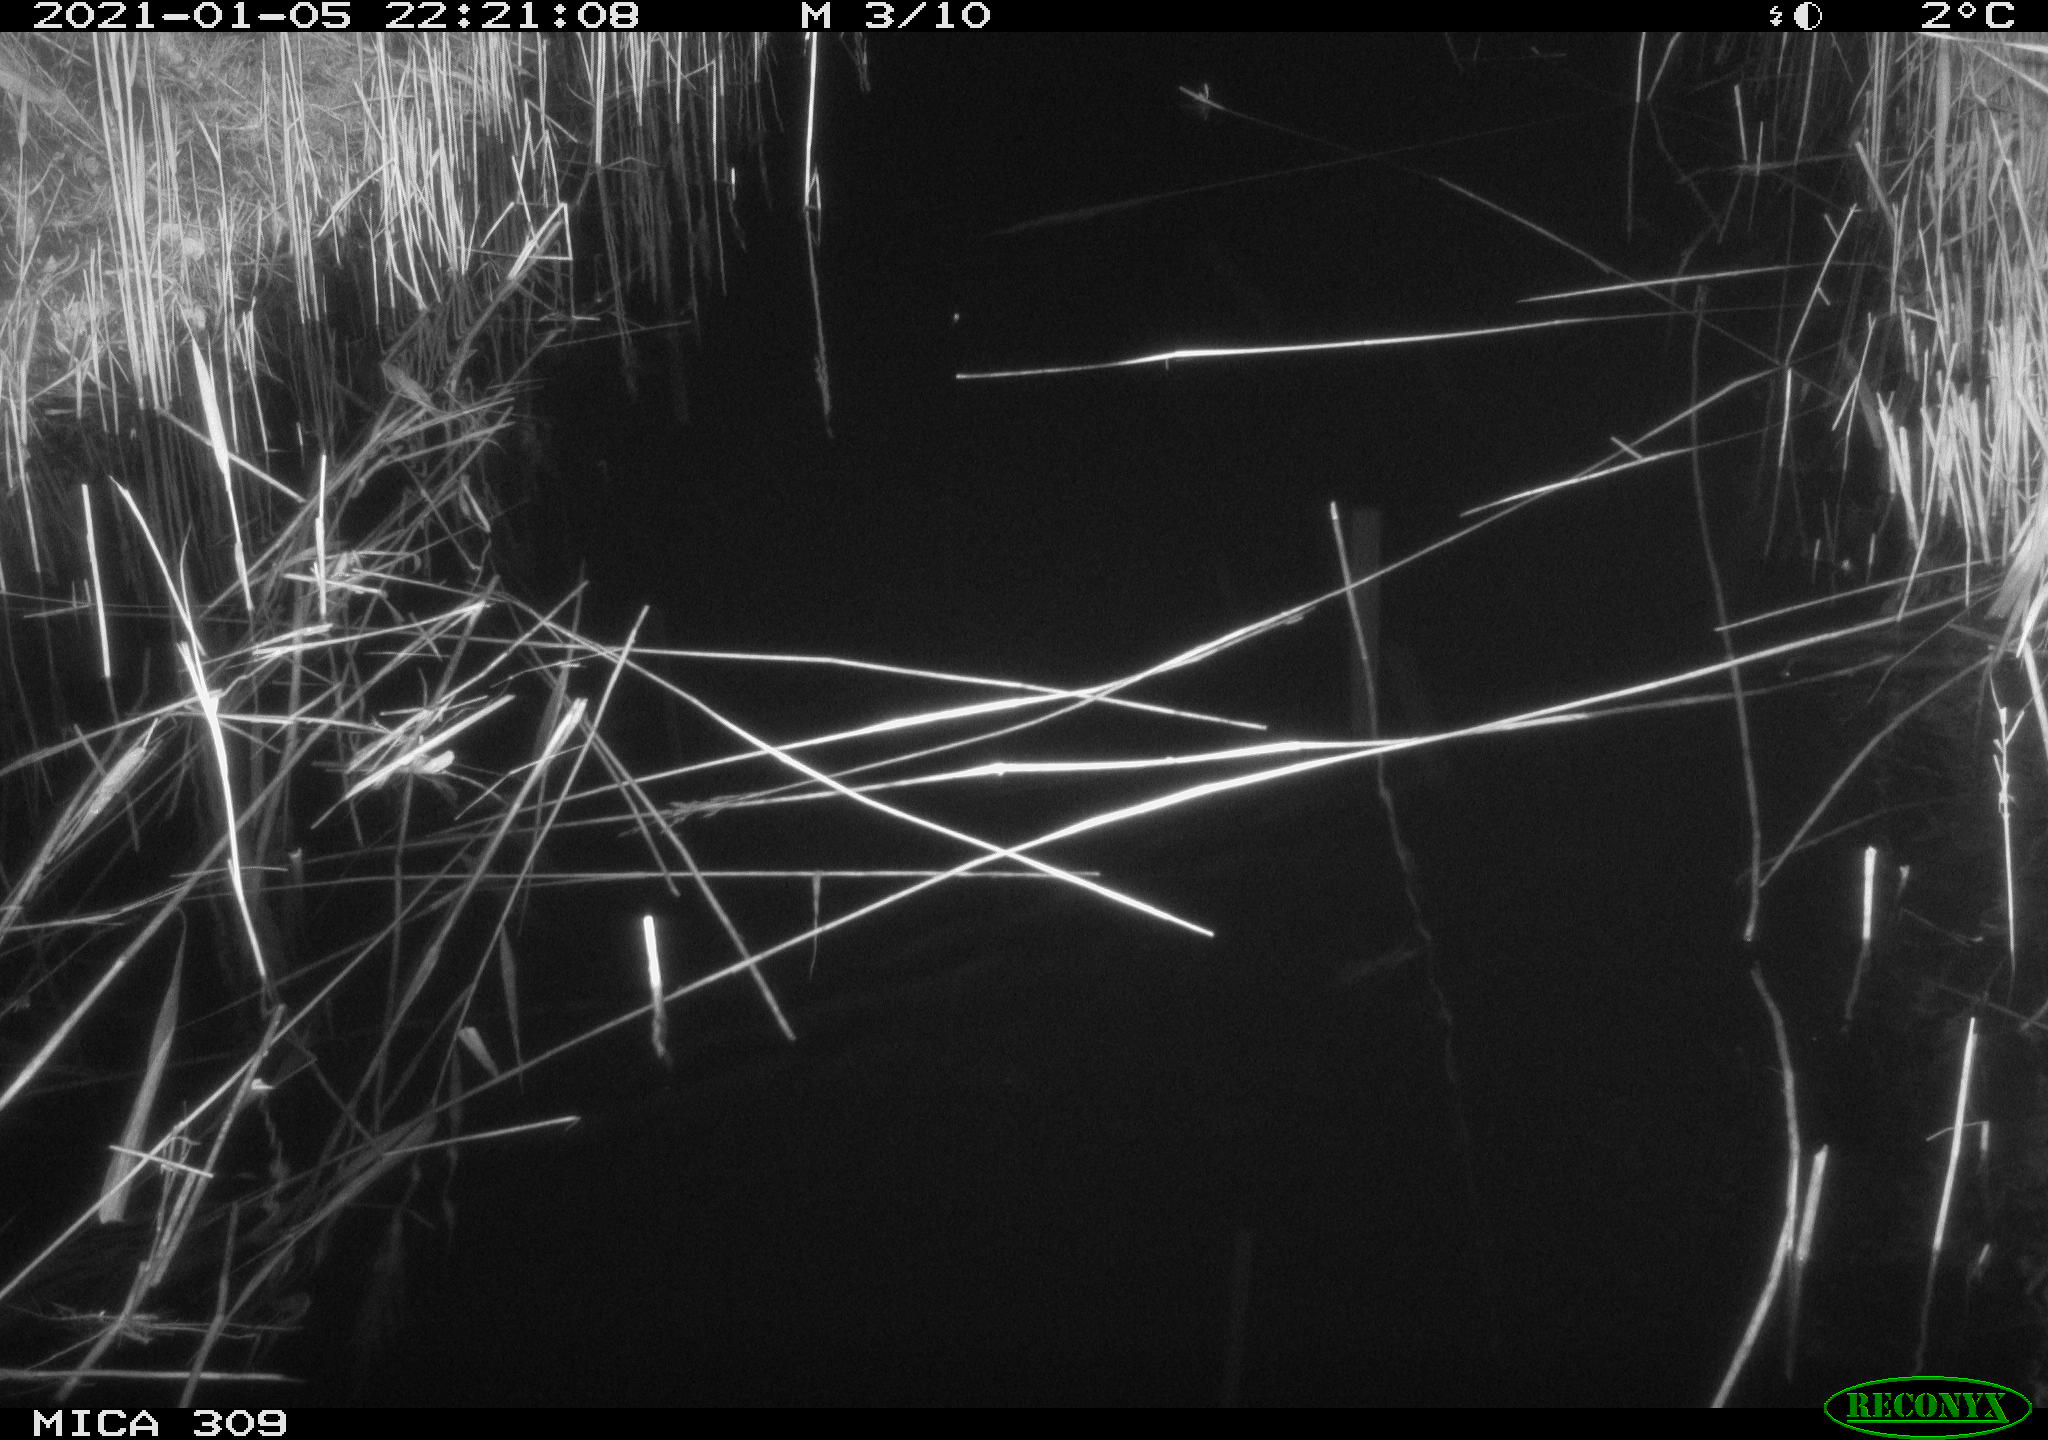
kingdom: Animalia
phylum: Chordata
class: Mammalia
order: Rodentia
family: Muridae
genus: Rattus
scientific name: Rattus norvegicus
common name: Brown rat
